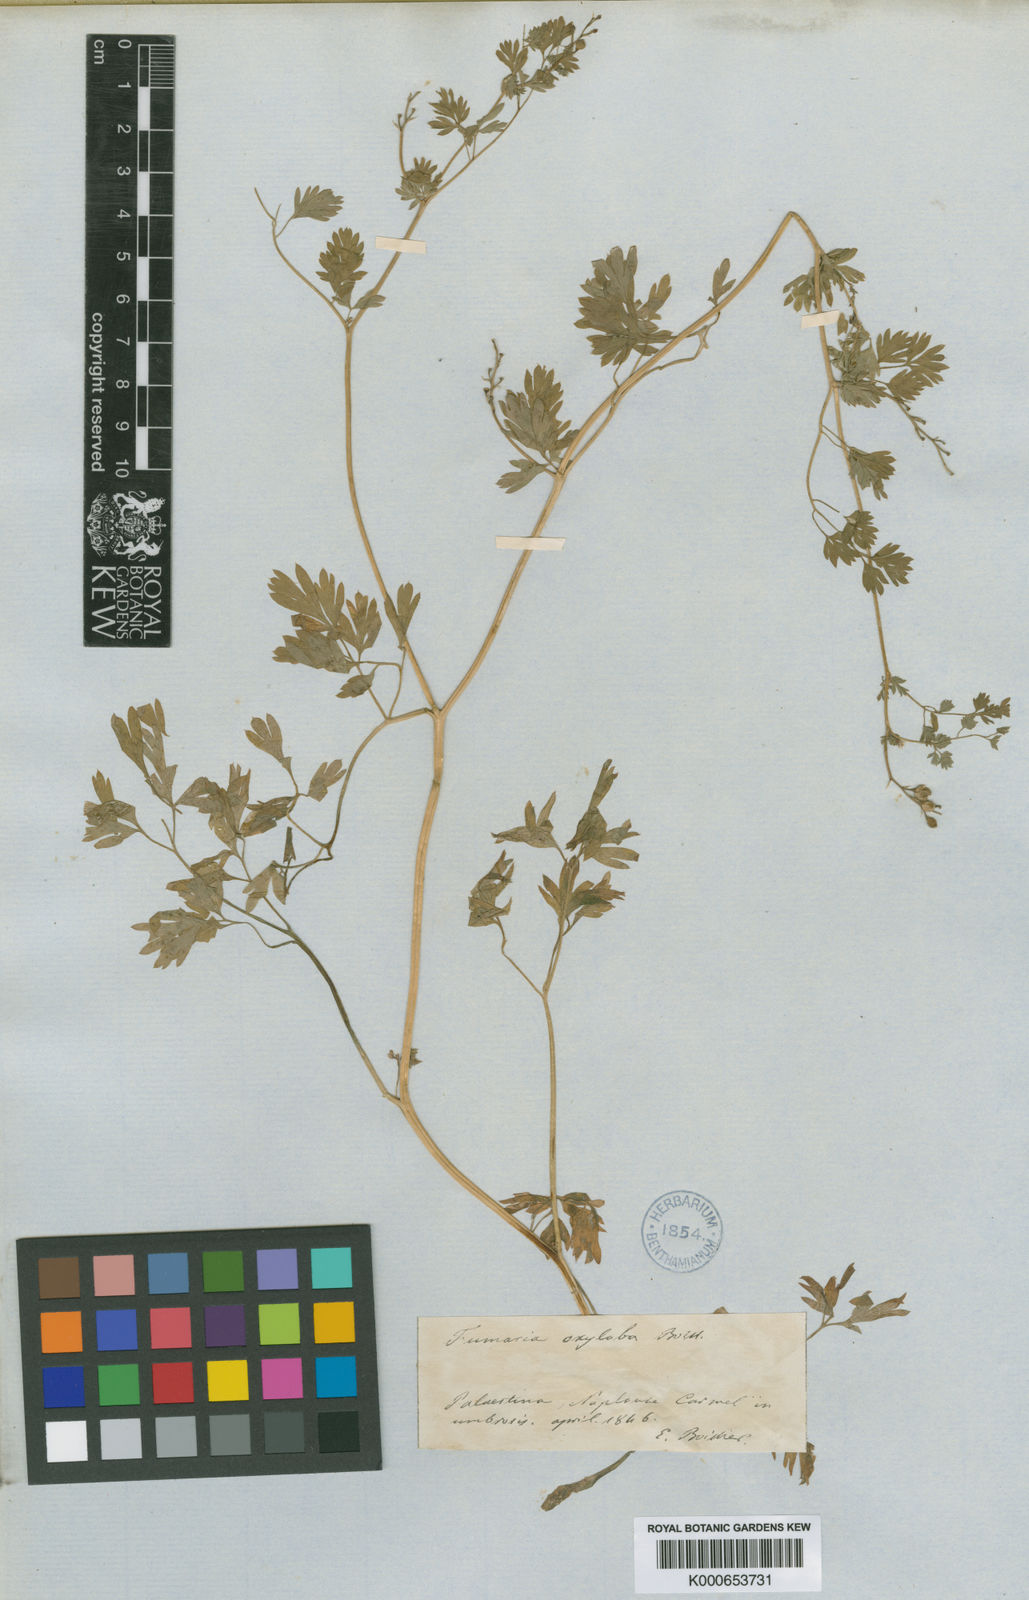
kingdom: Plantae
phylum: Tracheophyta
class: Magnoliopsida
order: Ranunculales
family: Papaveraceae
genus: Fumaria
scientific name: Fumaria macrocarpa
